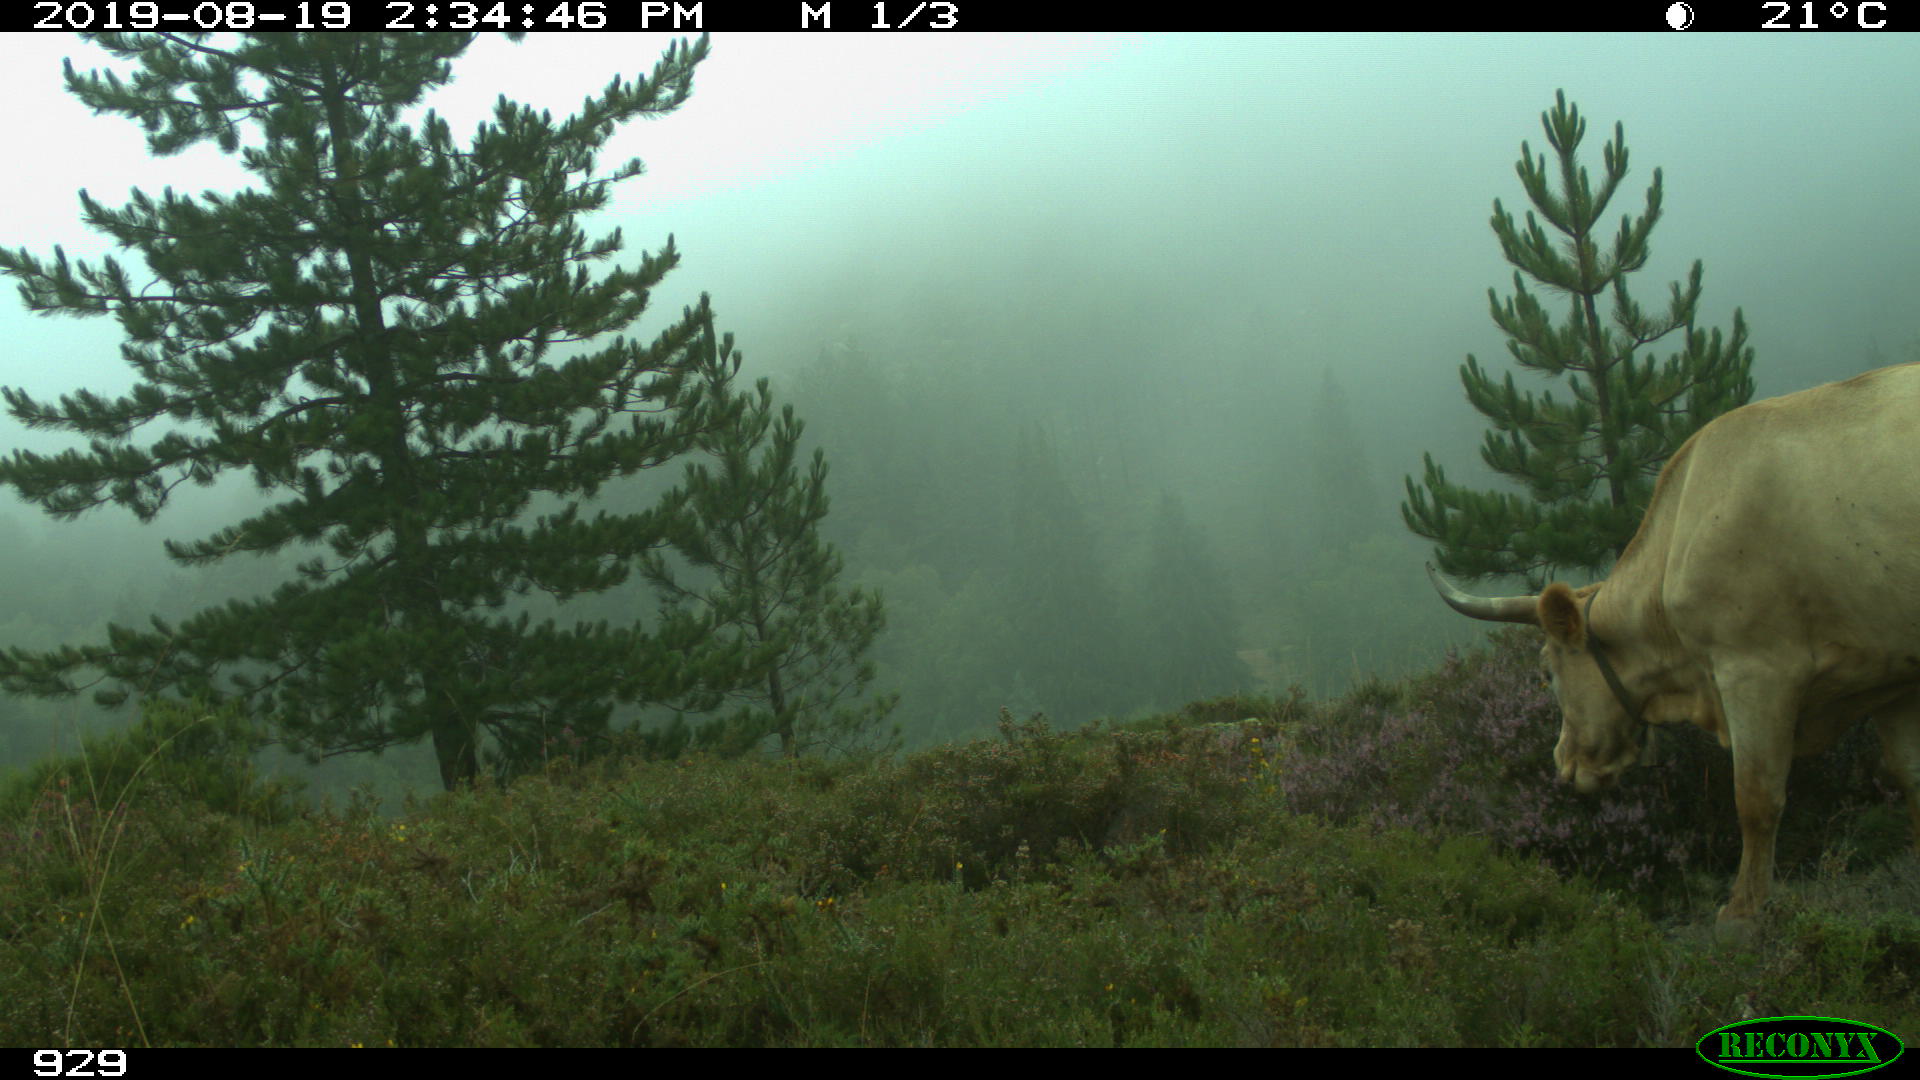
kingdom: Animalia
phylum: Chordata
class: Mammalia
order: Artiodactyla
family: Bovidae
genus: Bos
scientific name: Bos taurus
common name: Domesticated cattle
